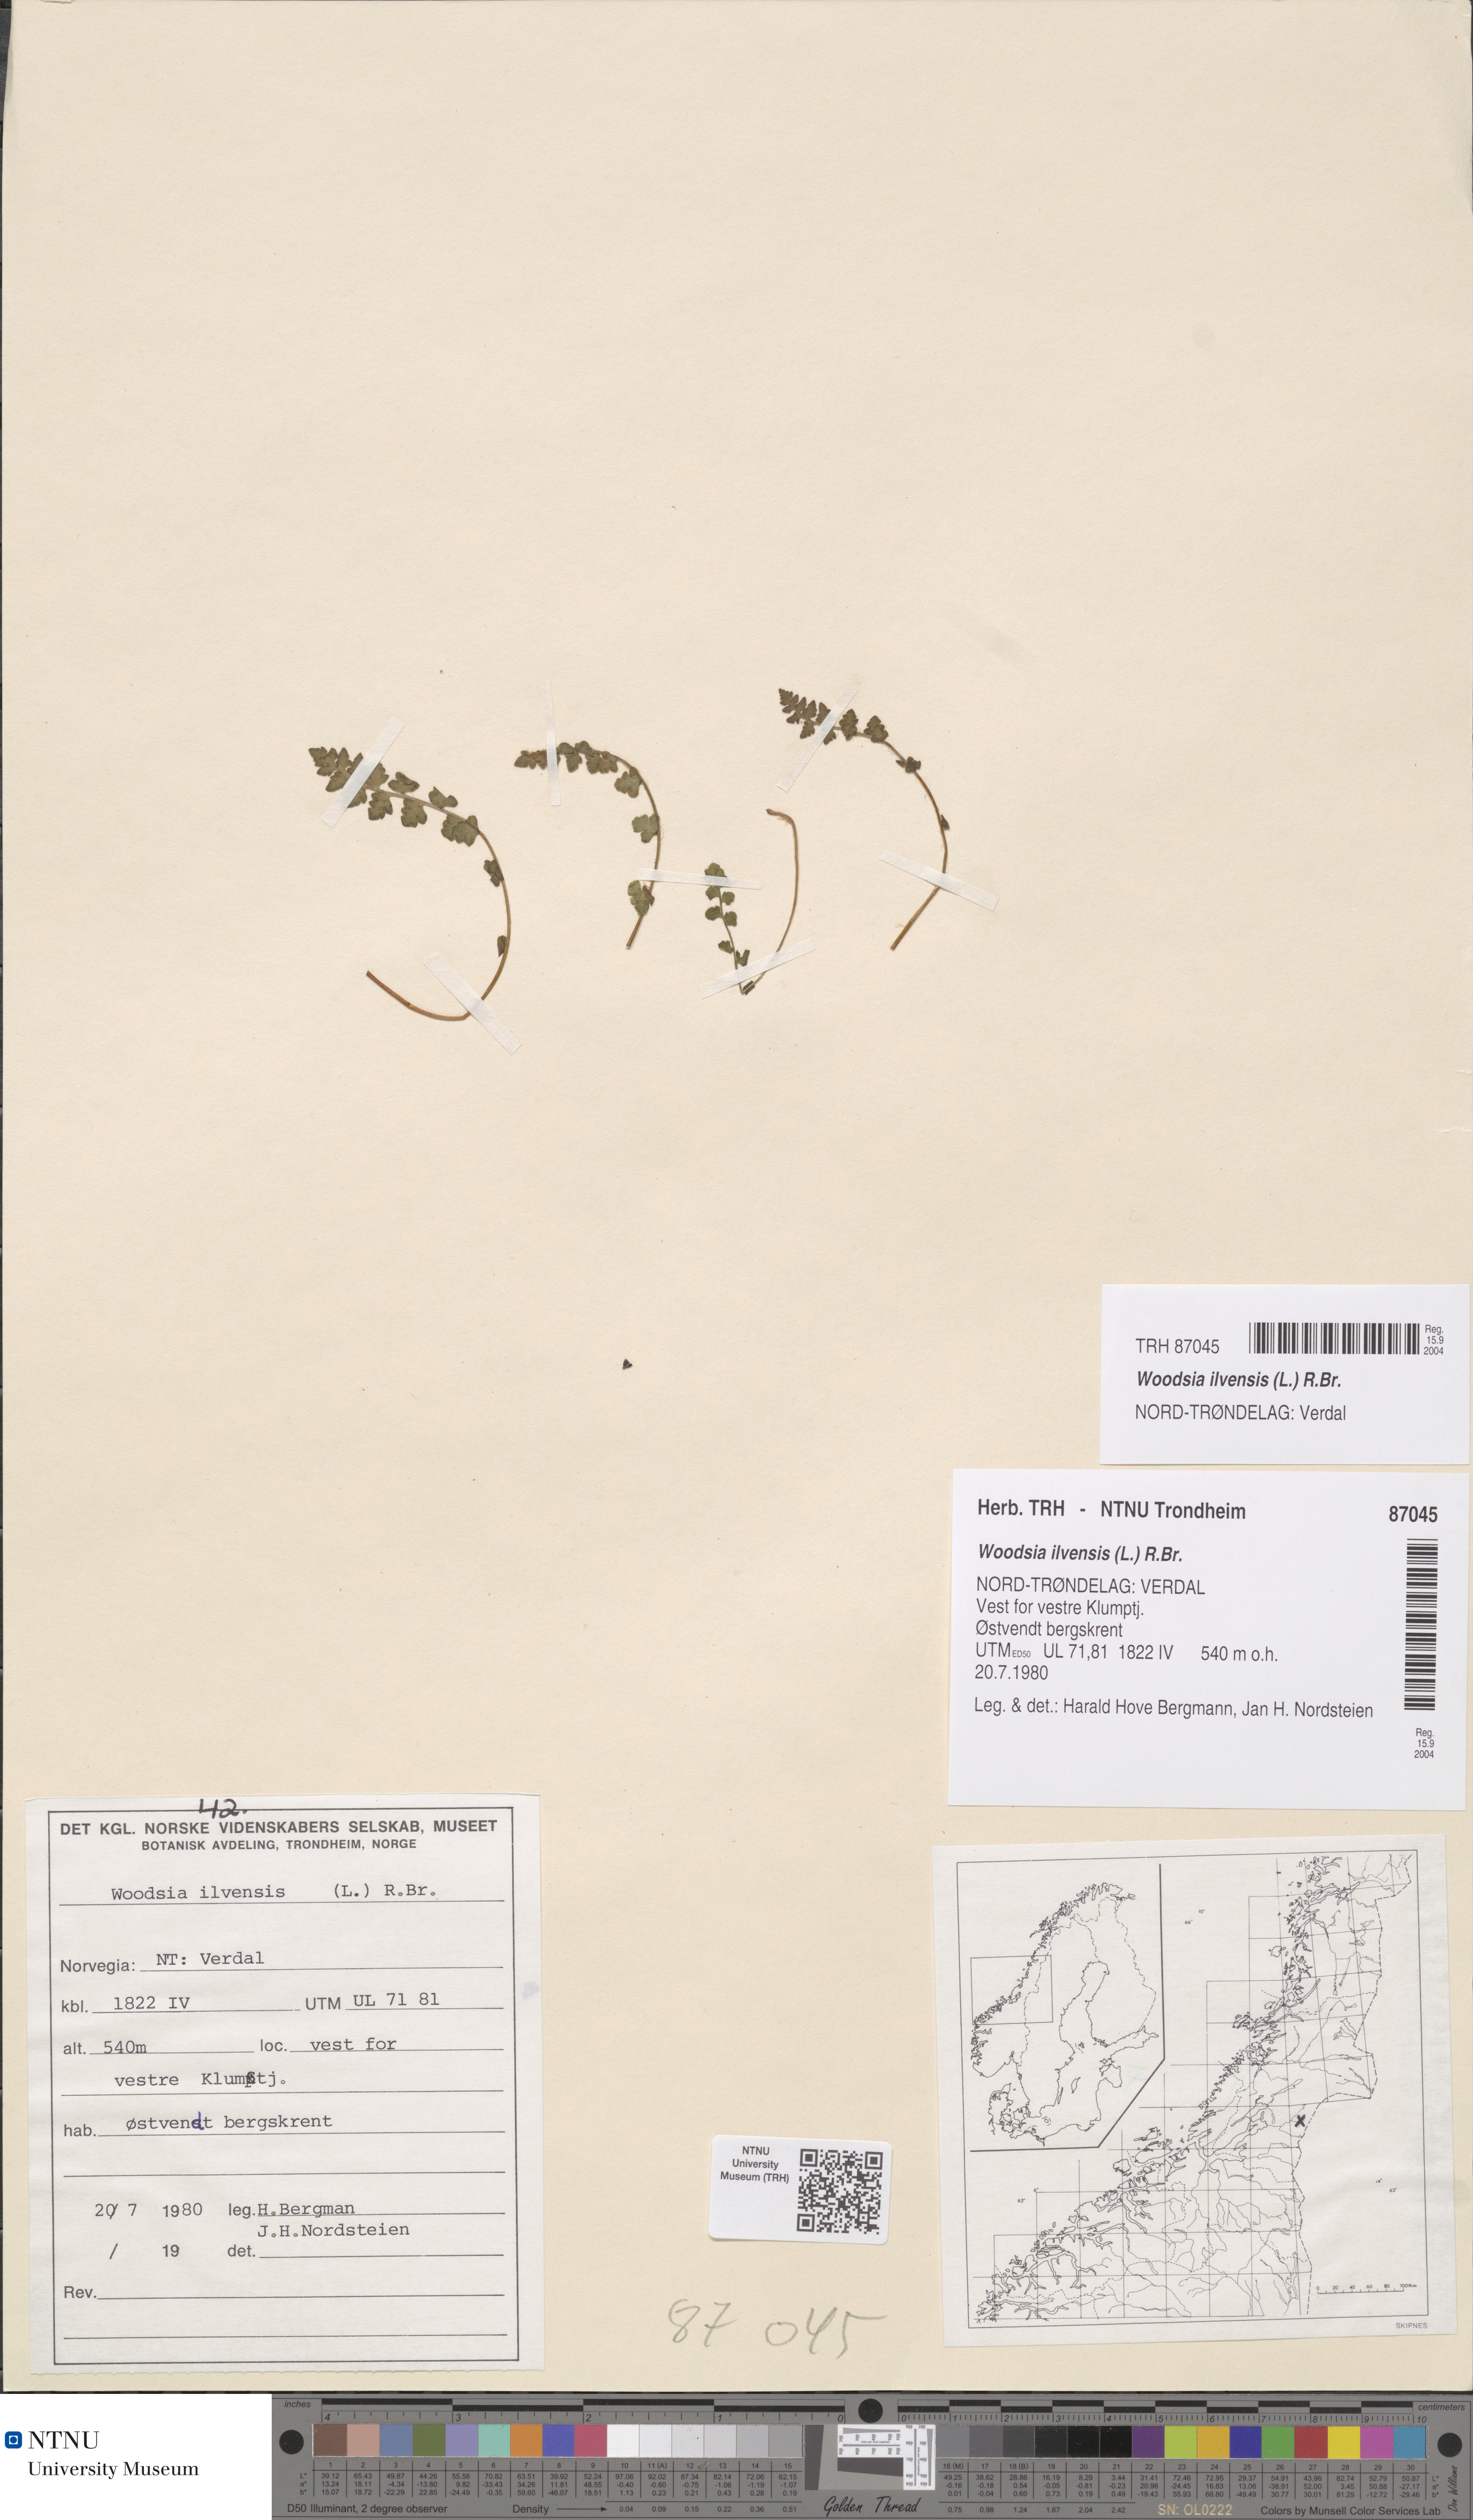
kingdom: Plantae
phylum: Tracheophyta
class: Polypodiopsida
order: Polypodiales
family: Woodsiaceae
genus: Woodsia
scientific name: Woodsia ilvensis
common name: Fragrant woodsia
